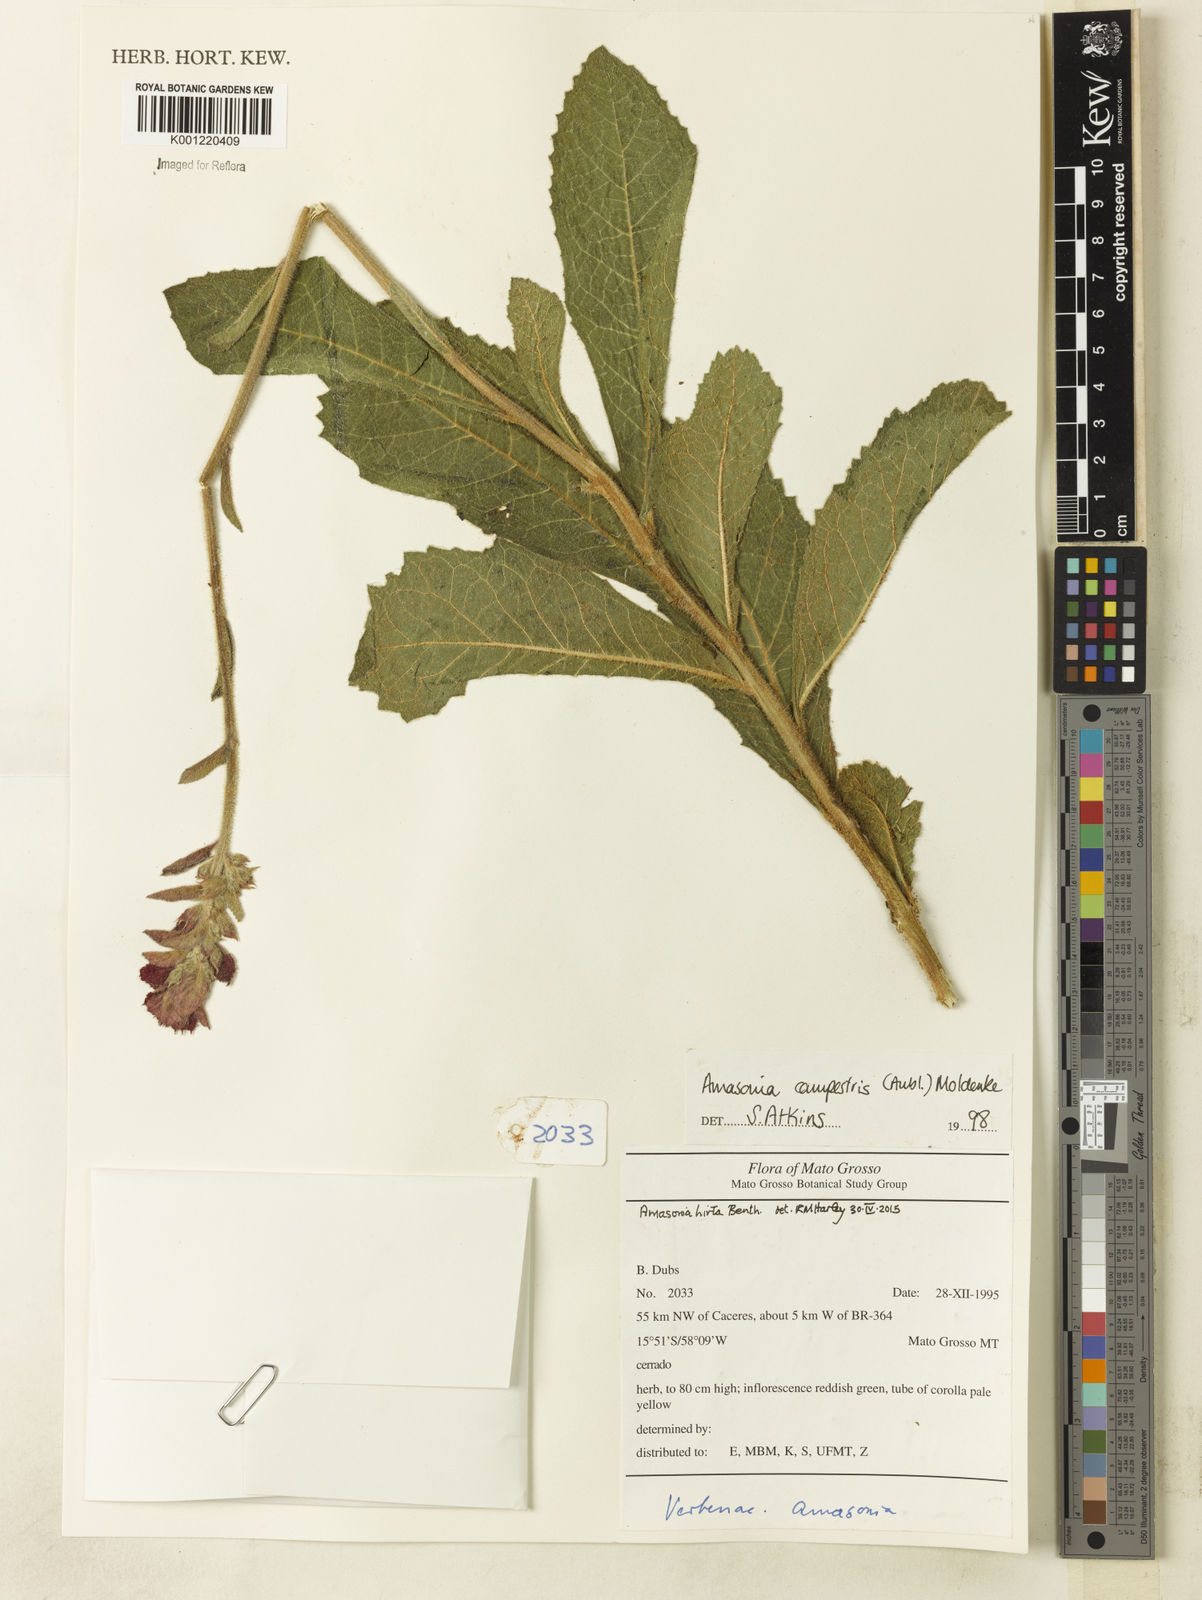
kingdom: Plantae
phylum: Tracheophyta
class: Magnoliopsida
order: Lamiales
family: Lamiaceae
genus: Amasonia
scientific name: Amasonia hirta
